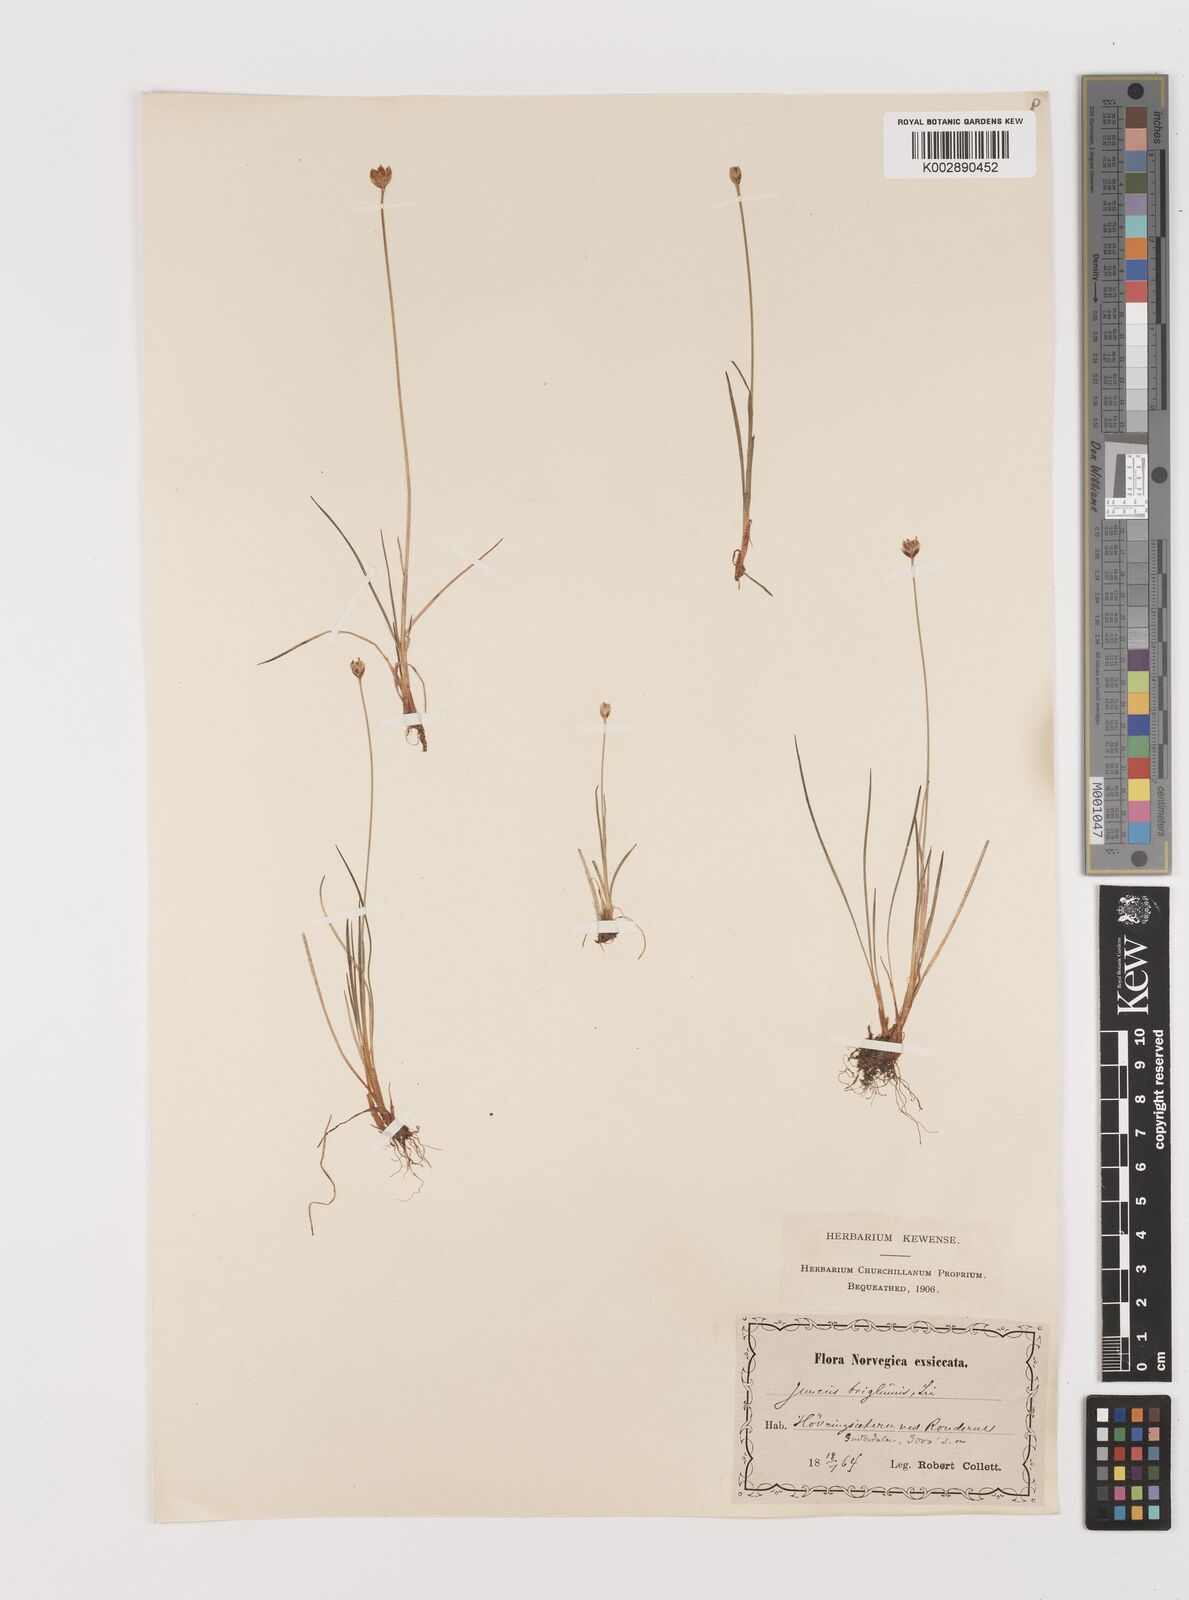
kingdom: Plantae
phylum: Tracheophyta
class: Liliopsida
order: Poales
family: Juncaceae
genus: Juncus
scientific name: Juncus triglumis
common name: Three-flowered rush
